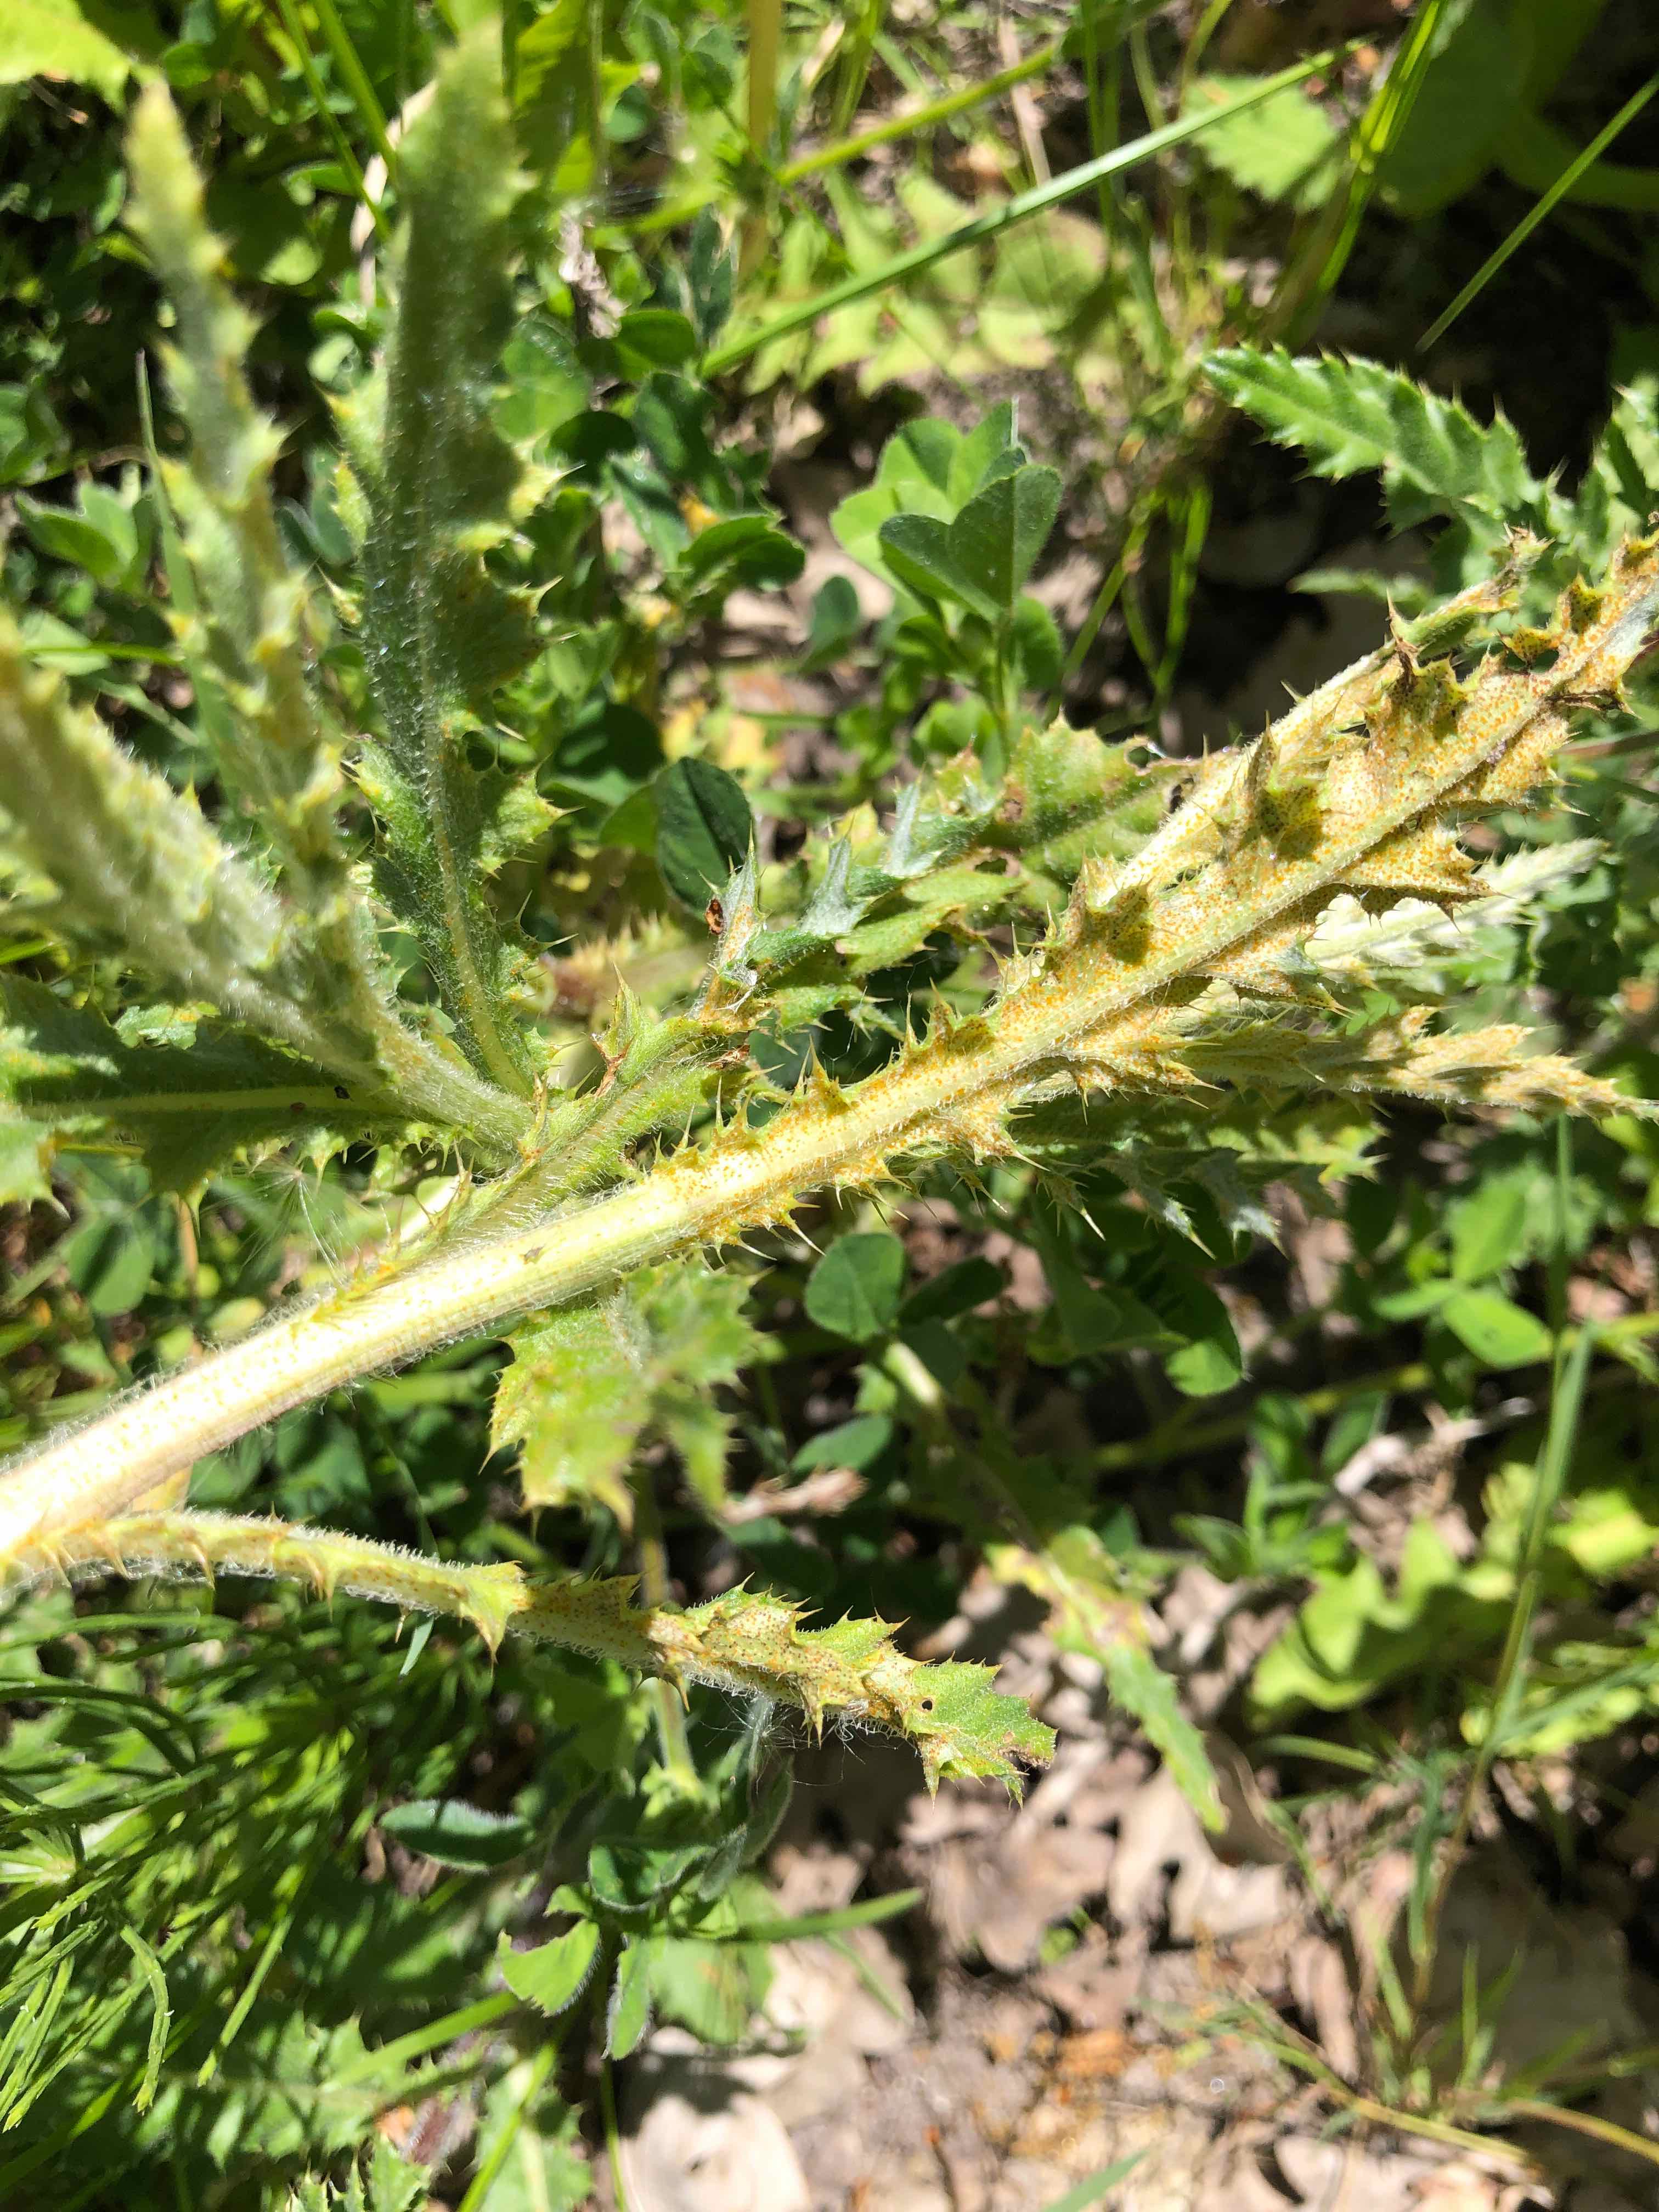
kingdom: Fungi
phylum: Basidiomycota
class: Pucciniomycetes
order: Pucciniales
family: Pucciniaceae
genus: Puccinia
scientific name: Puccinia suaveolens
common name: tidsel-tvecellerust
